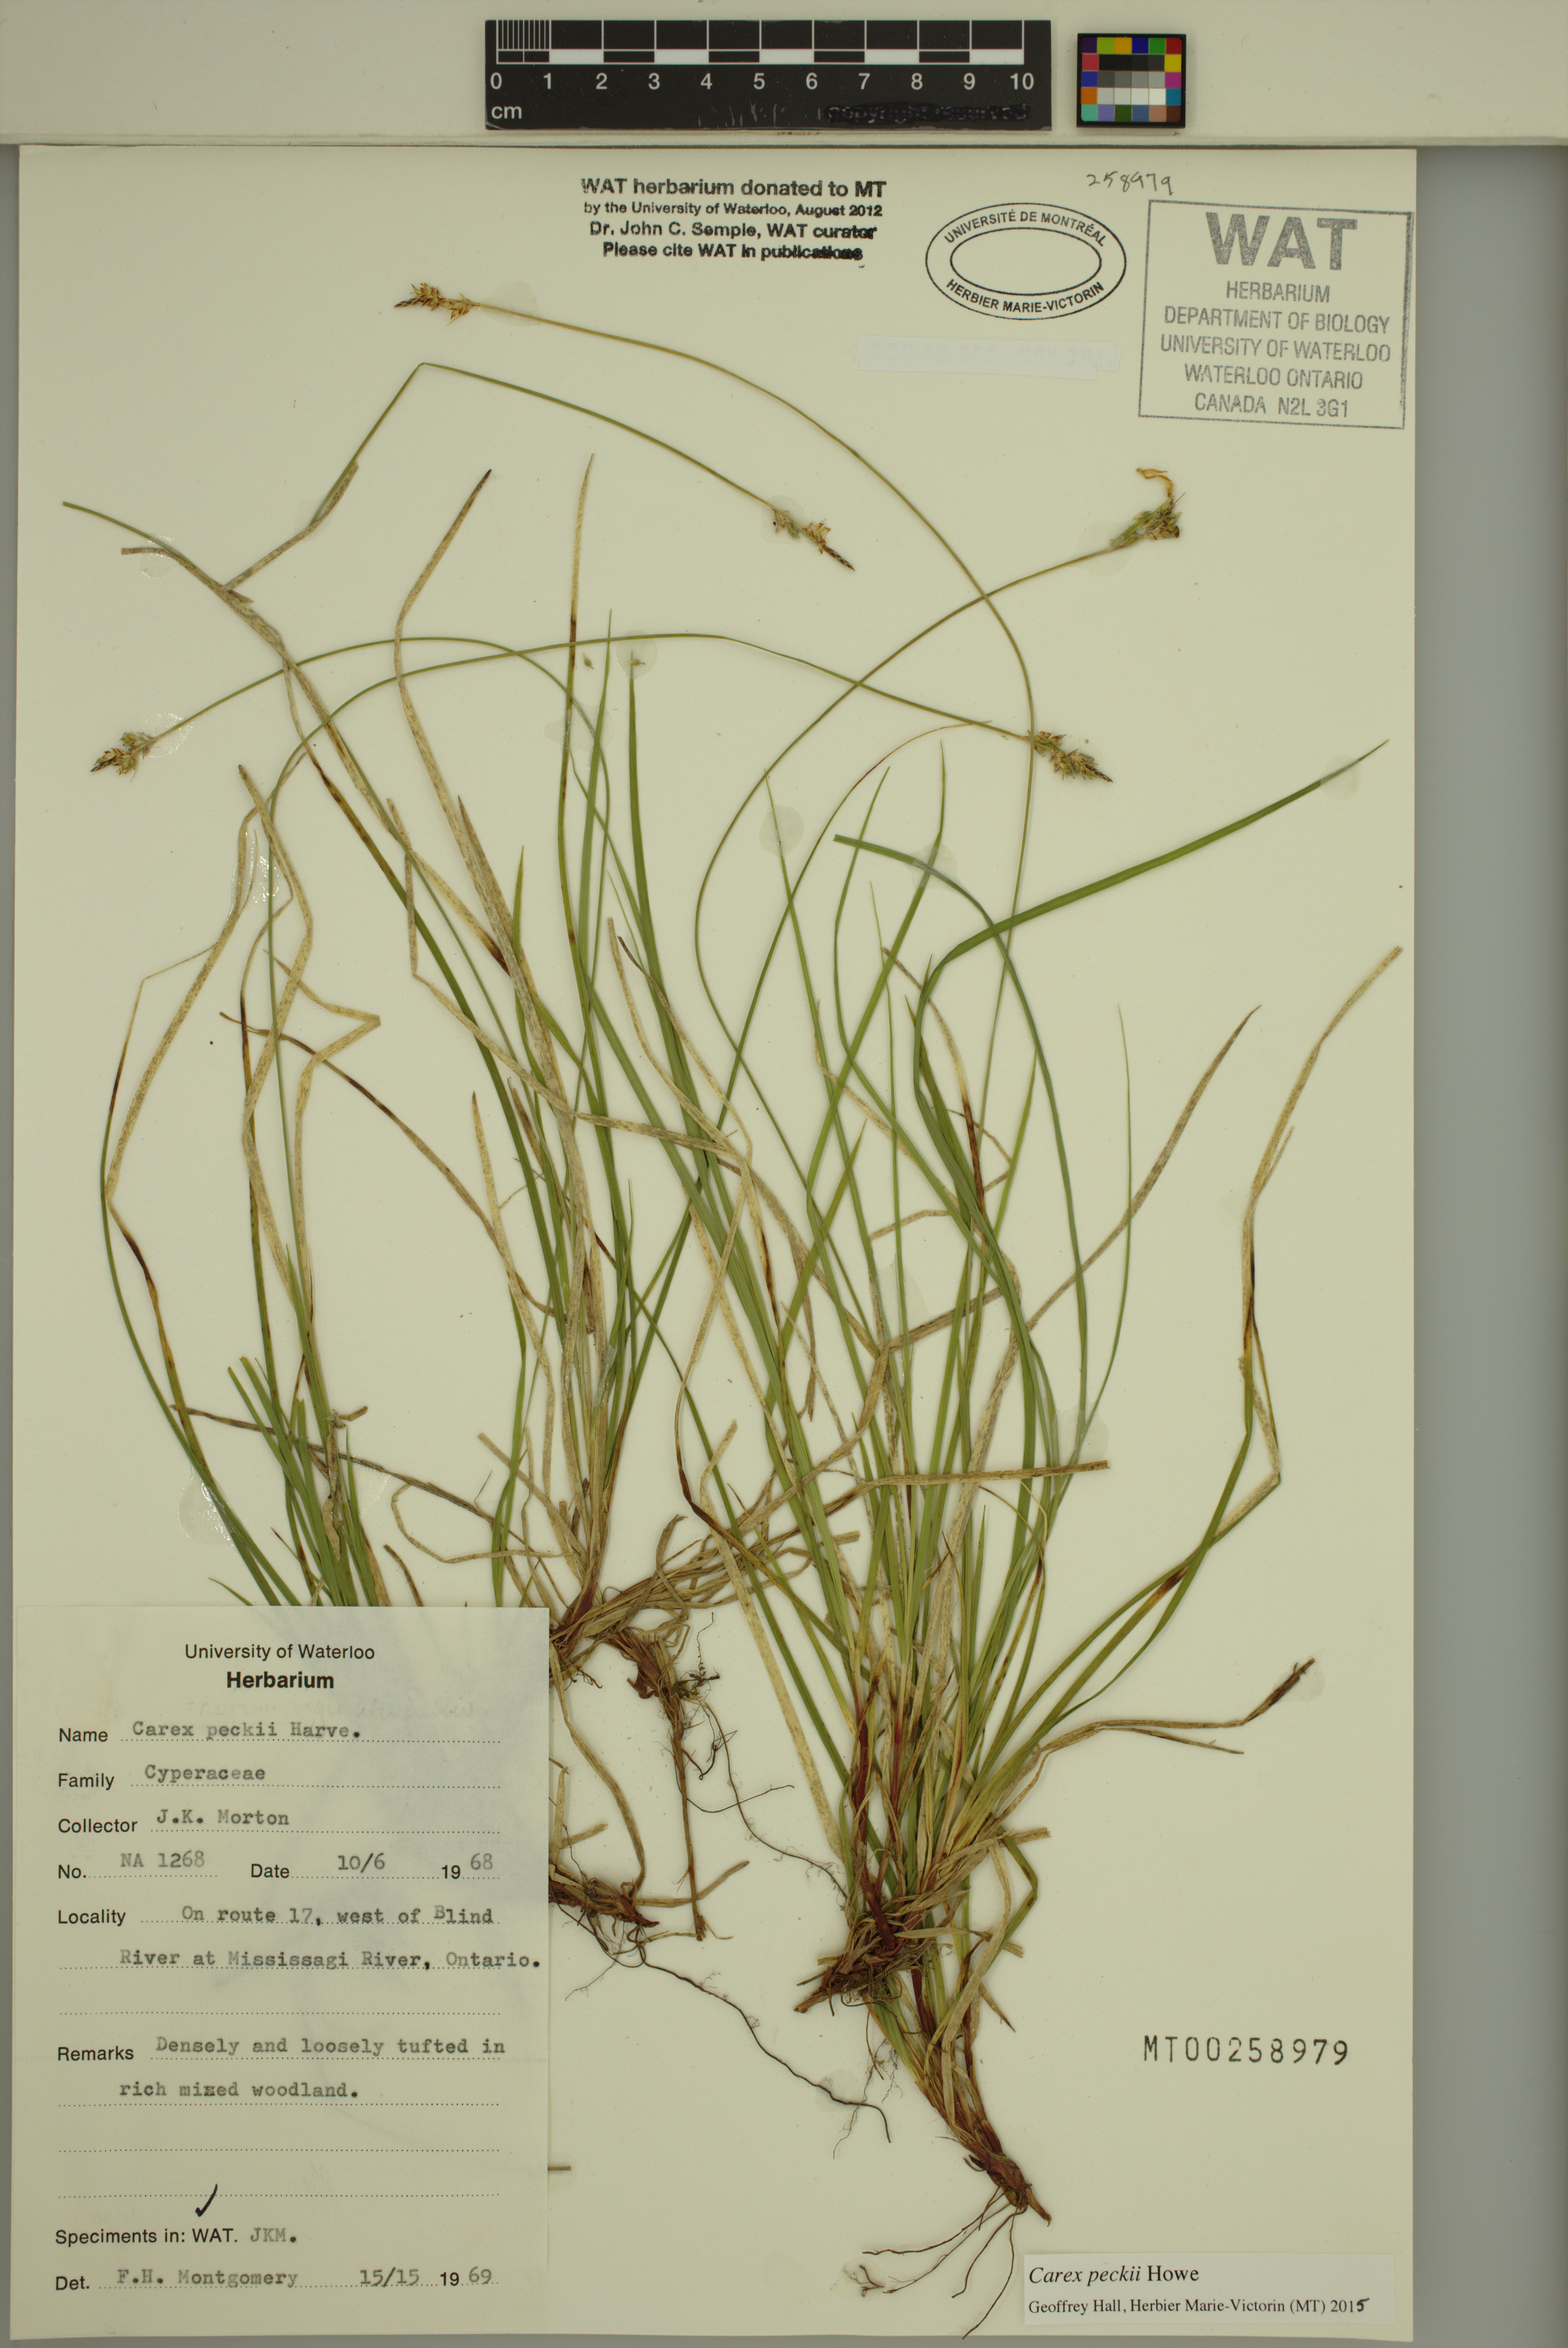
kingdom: Plantae
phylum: Tracheophyta
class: Liliopsida
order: Poales
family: Cyperaceae
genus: Carex
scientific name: Carex peckii
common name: Peck's oak sedge
